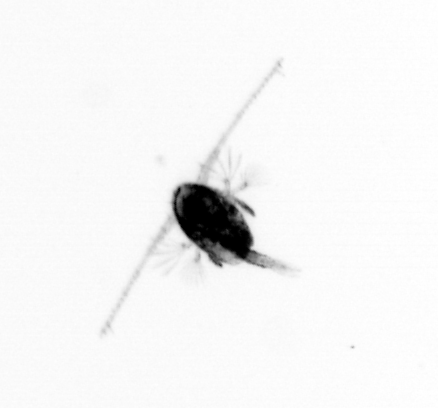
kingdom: Animalia
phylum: Arthropoda
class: Copepoda
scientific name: Copepoda
